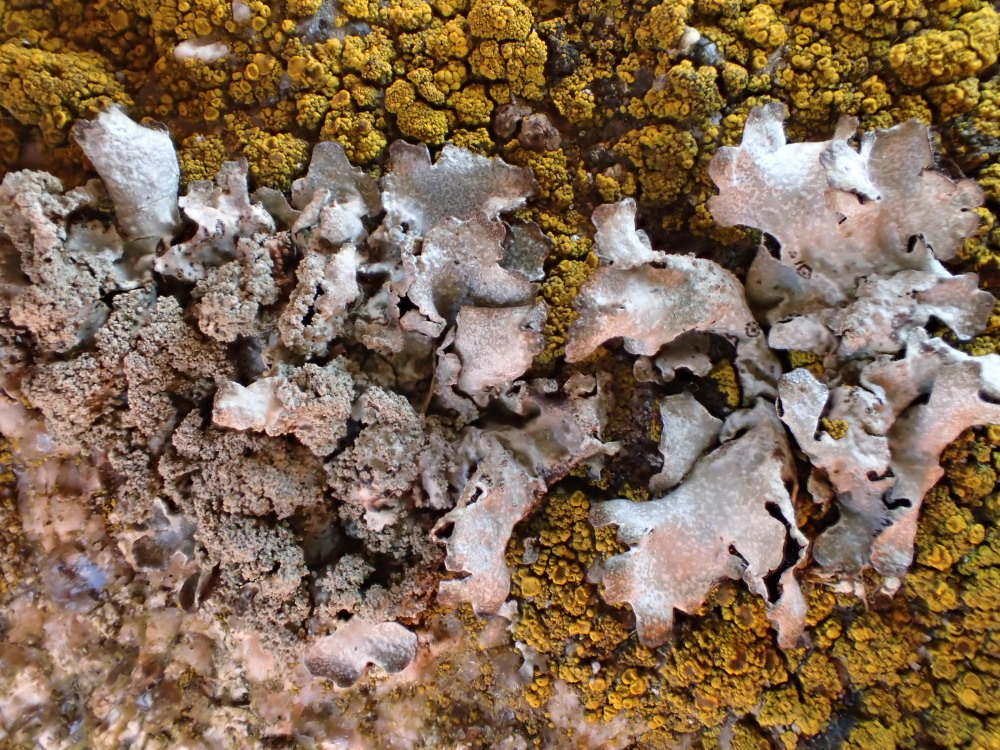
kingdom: Fungi
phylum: Ascomycota
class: Lecanoromycetes
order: Lecanorales
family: Parmeliaceae
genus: Parmelia
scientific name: Parmelia sulcata
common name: rynket skållav
